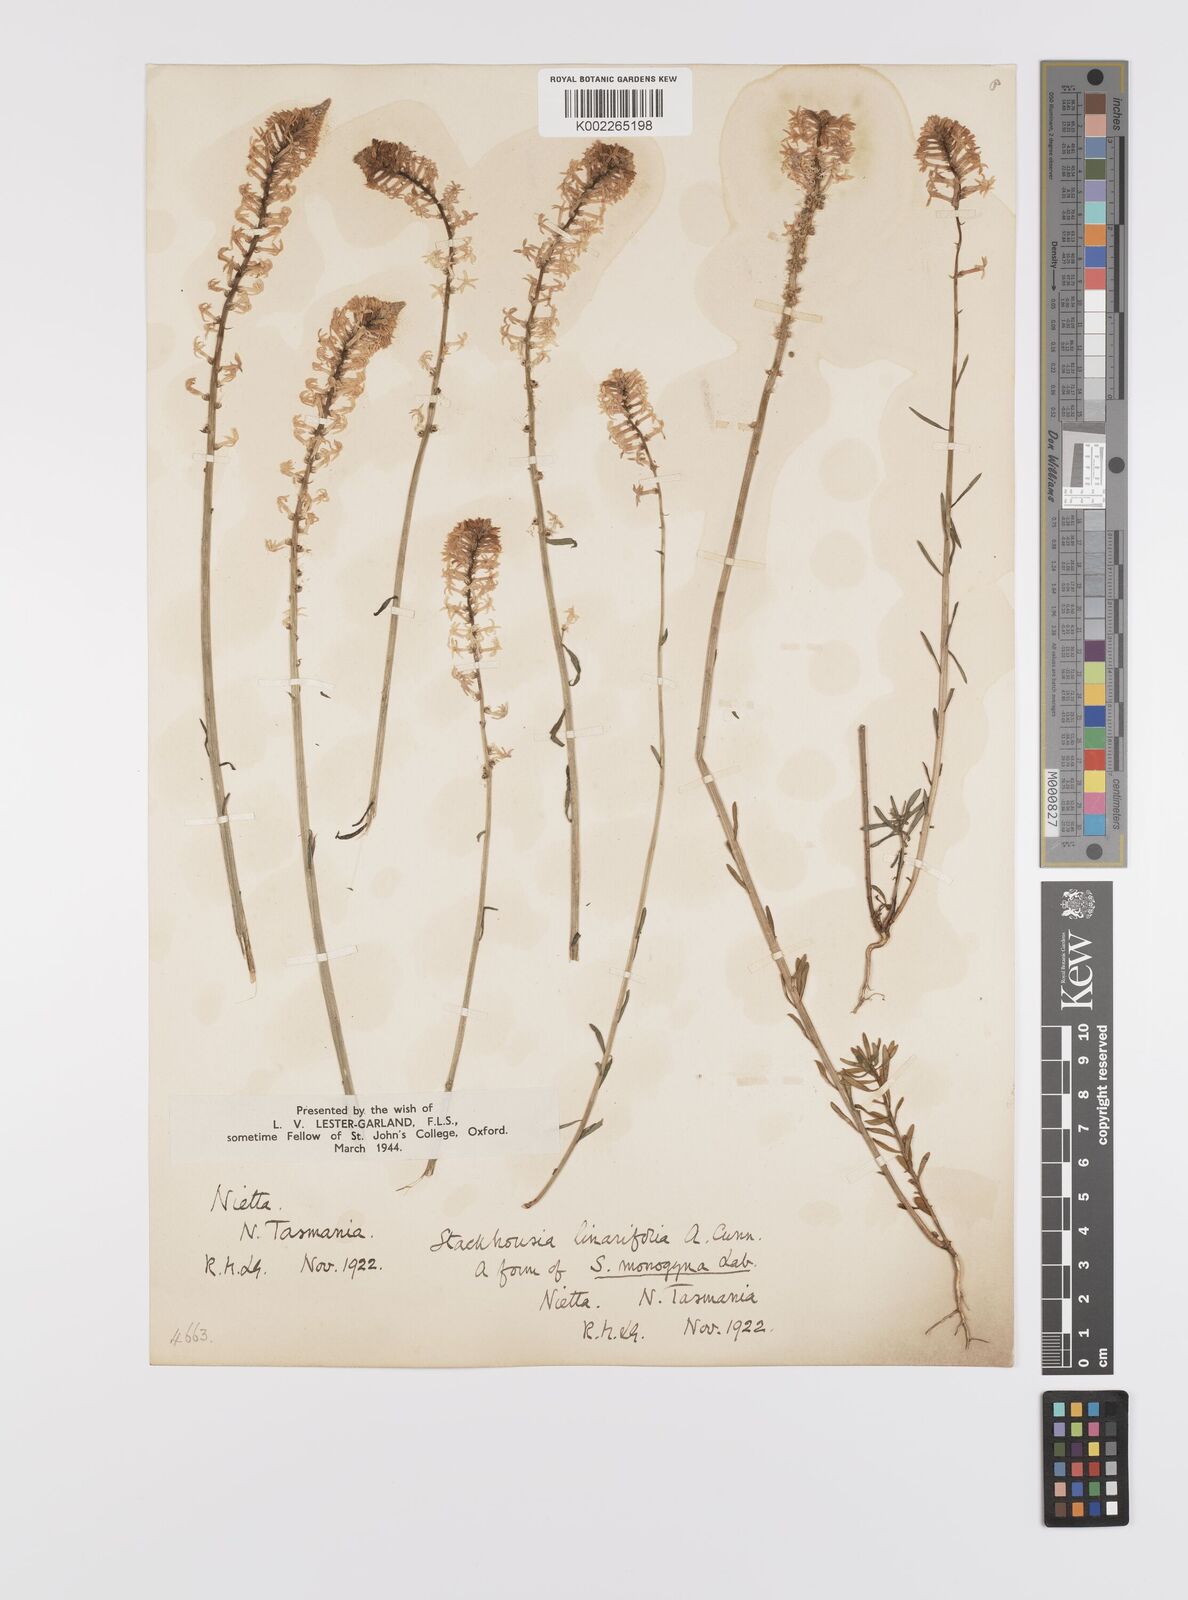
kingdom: Plantae
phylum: Tracheophyta
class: Magnoliopsida
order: Celastrales
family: Celastraceae
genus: Stackhousia
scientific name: Stackhousia monogyna
